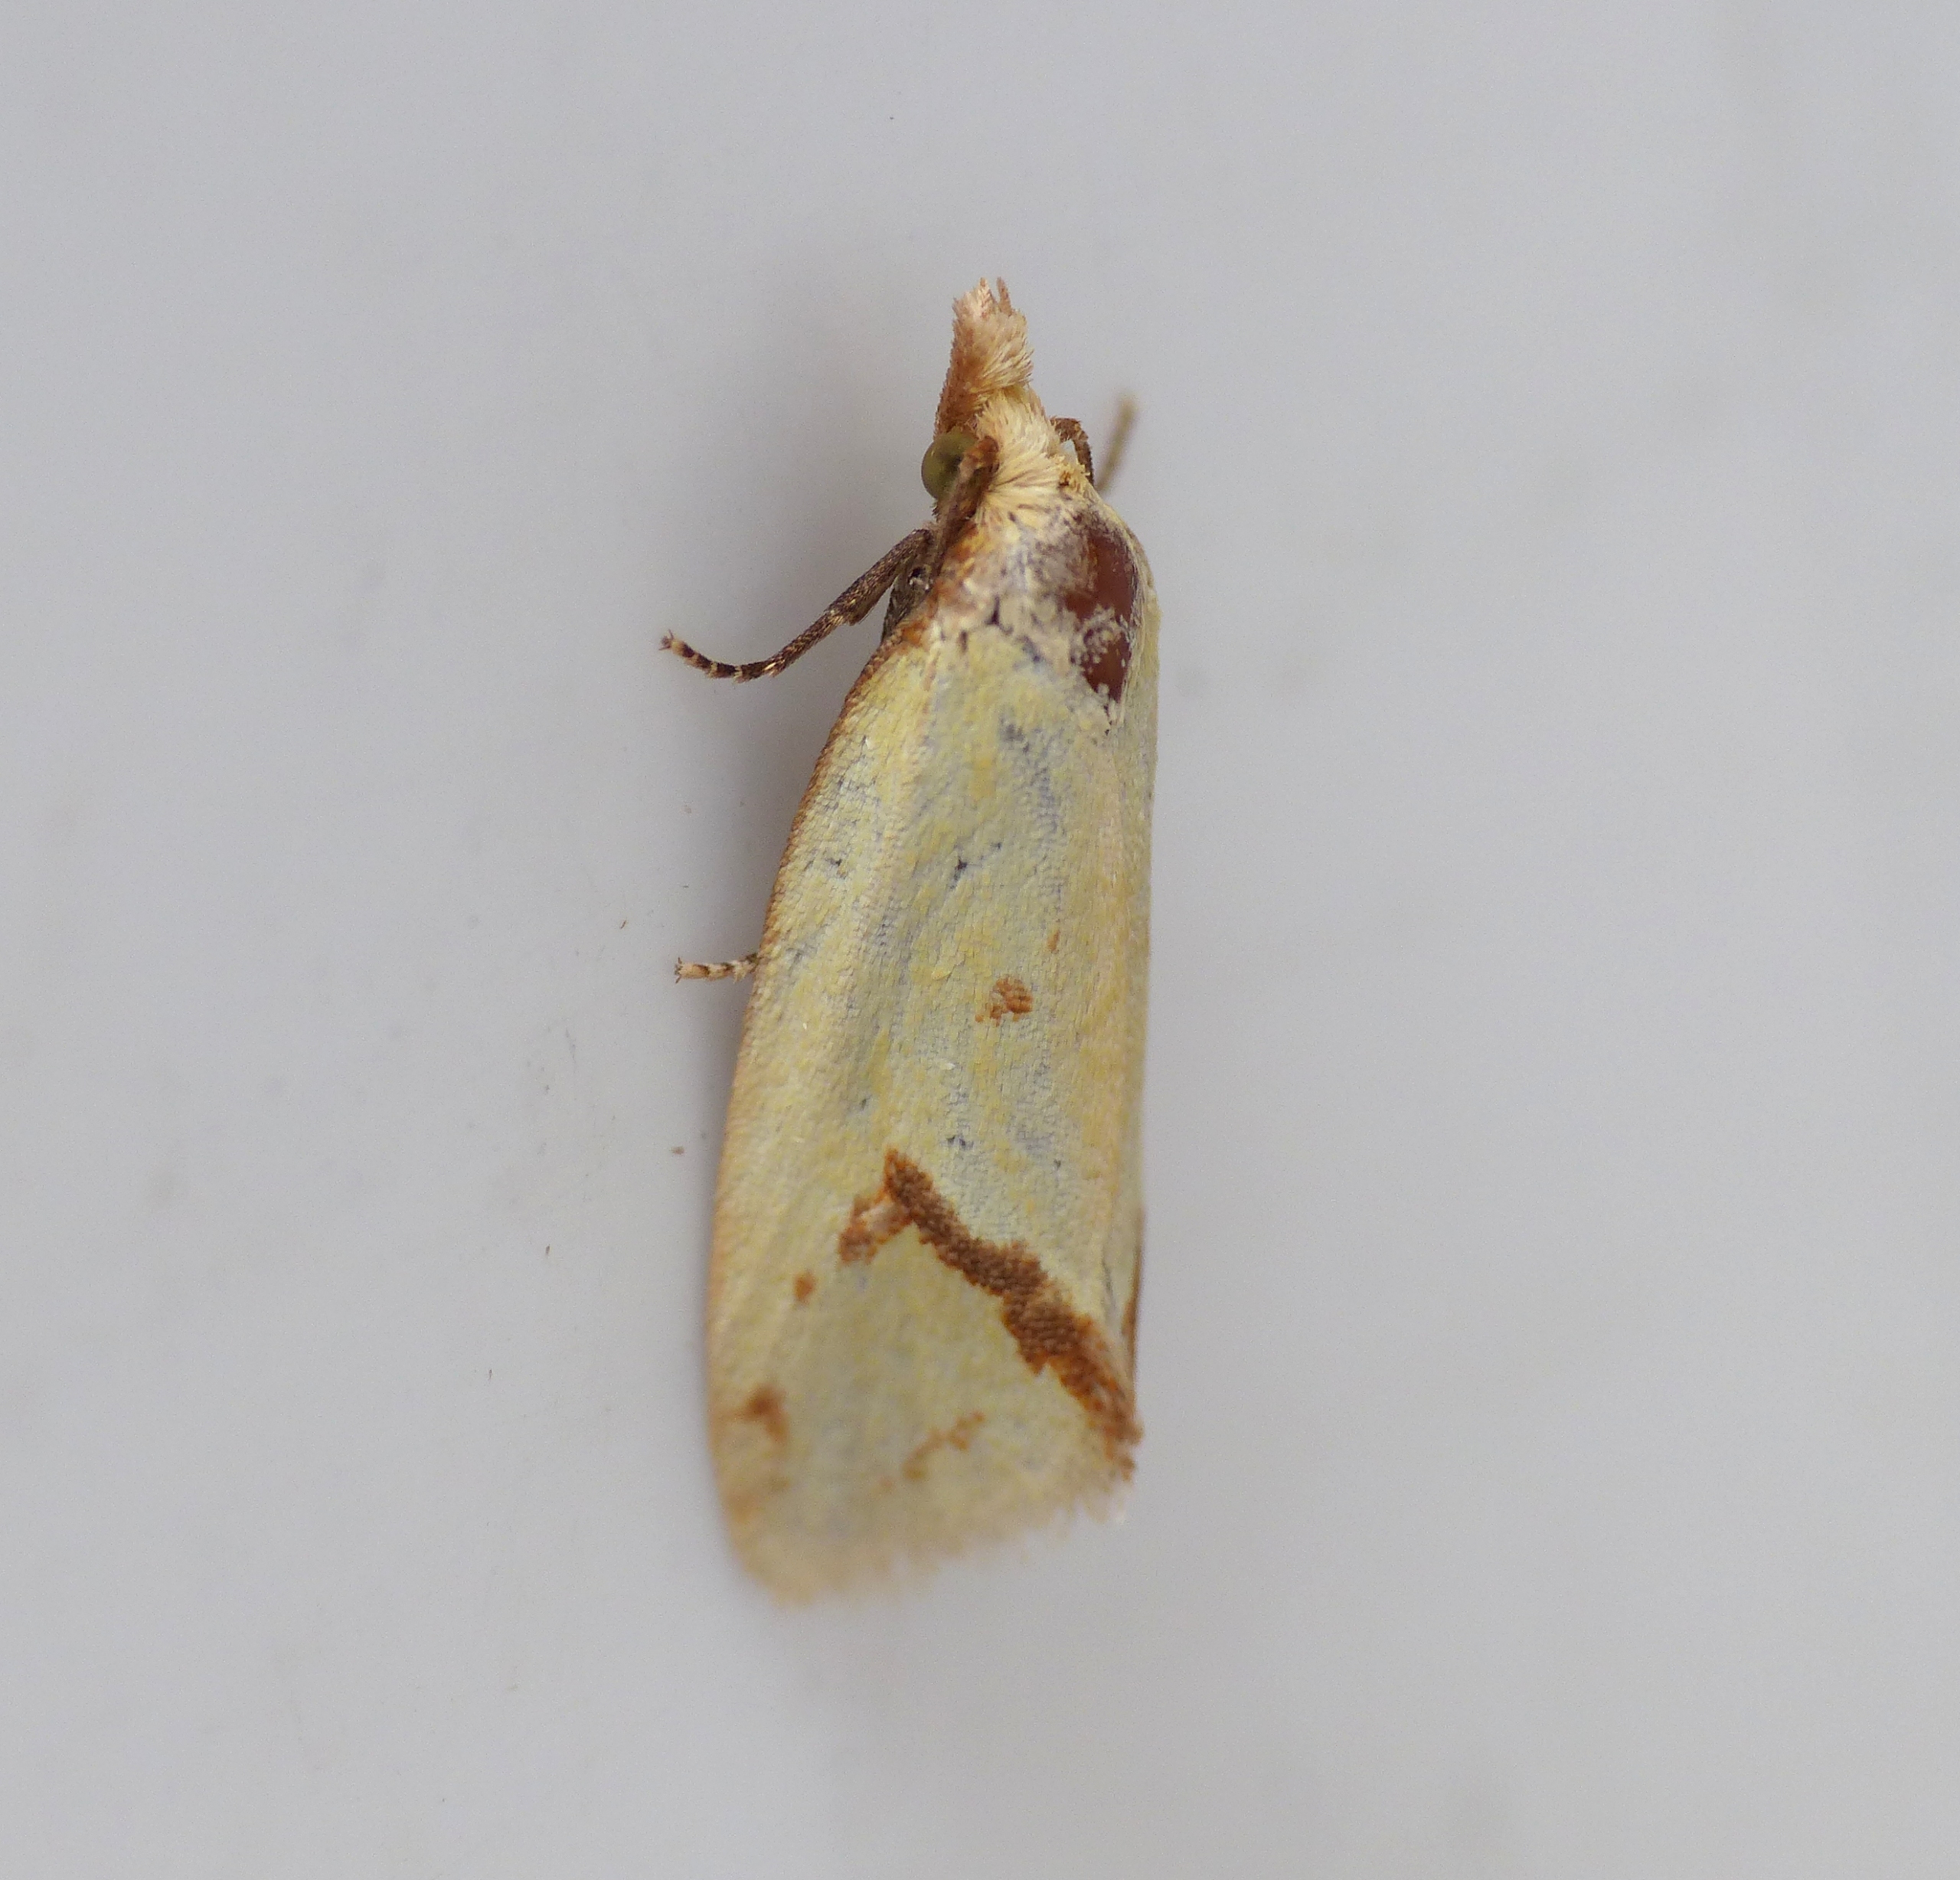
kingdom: Animalia
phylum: Arthropoda
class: Insecta
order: Lepidoptera
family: Tortricidae
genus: Agapeta
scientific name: Agapeta hamana
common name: Tidselgulvikler
